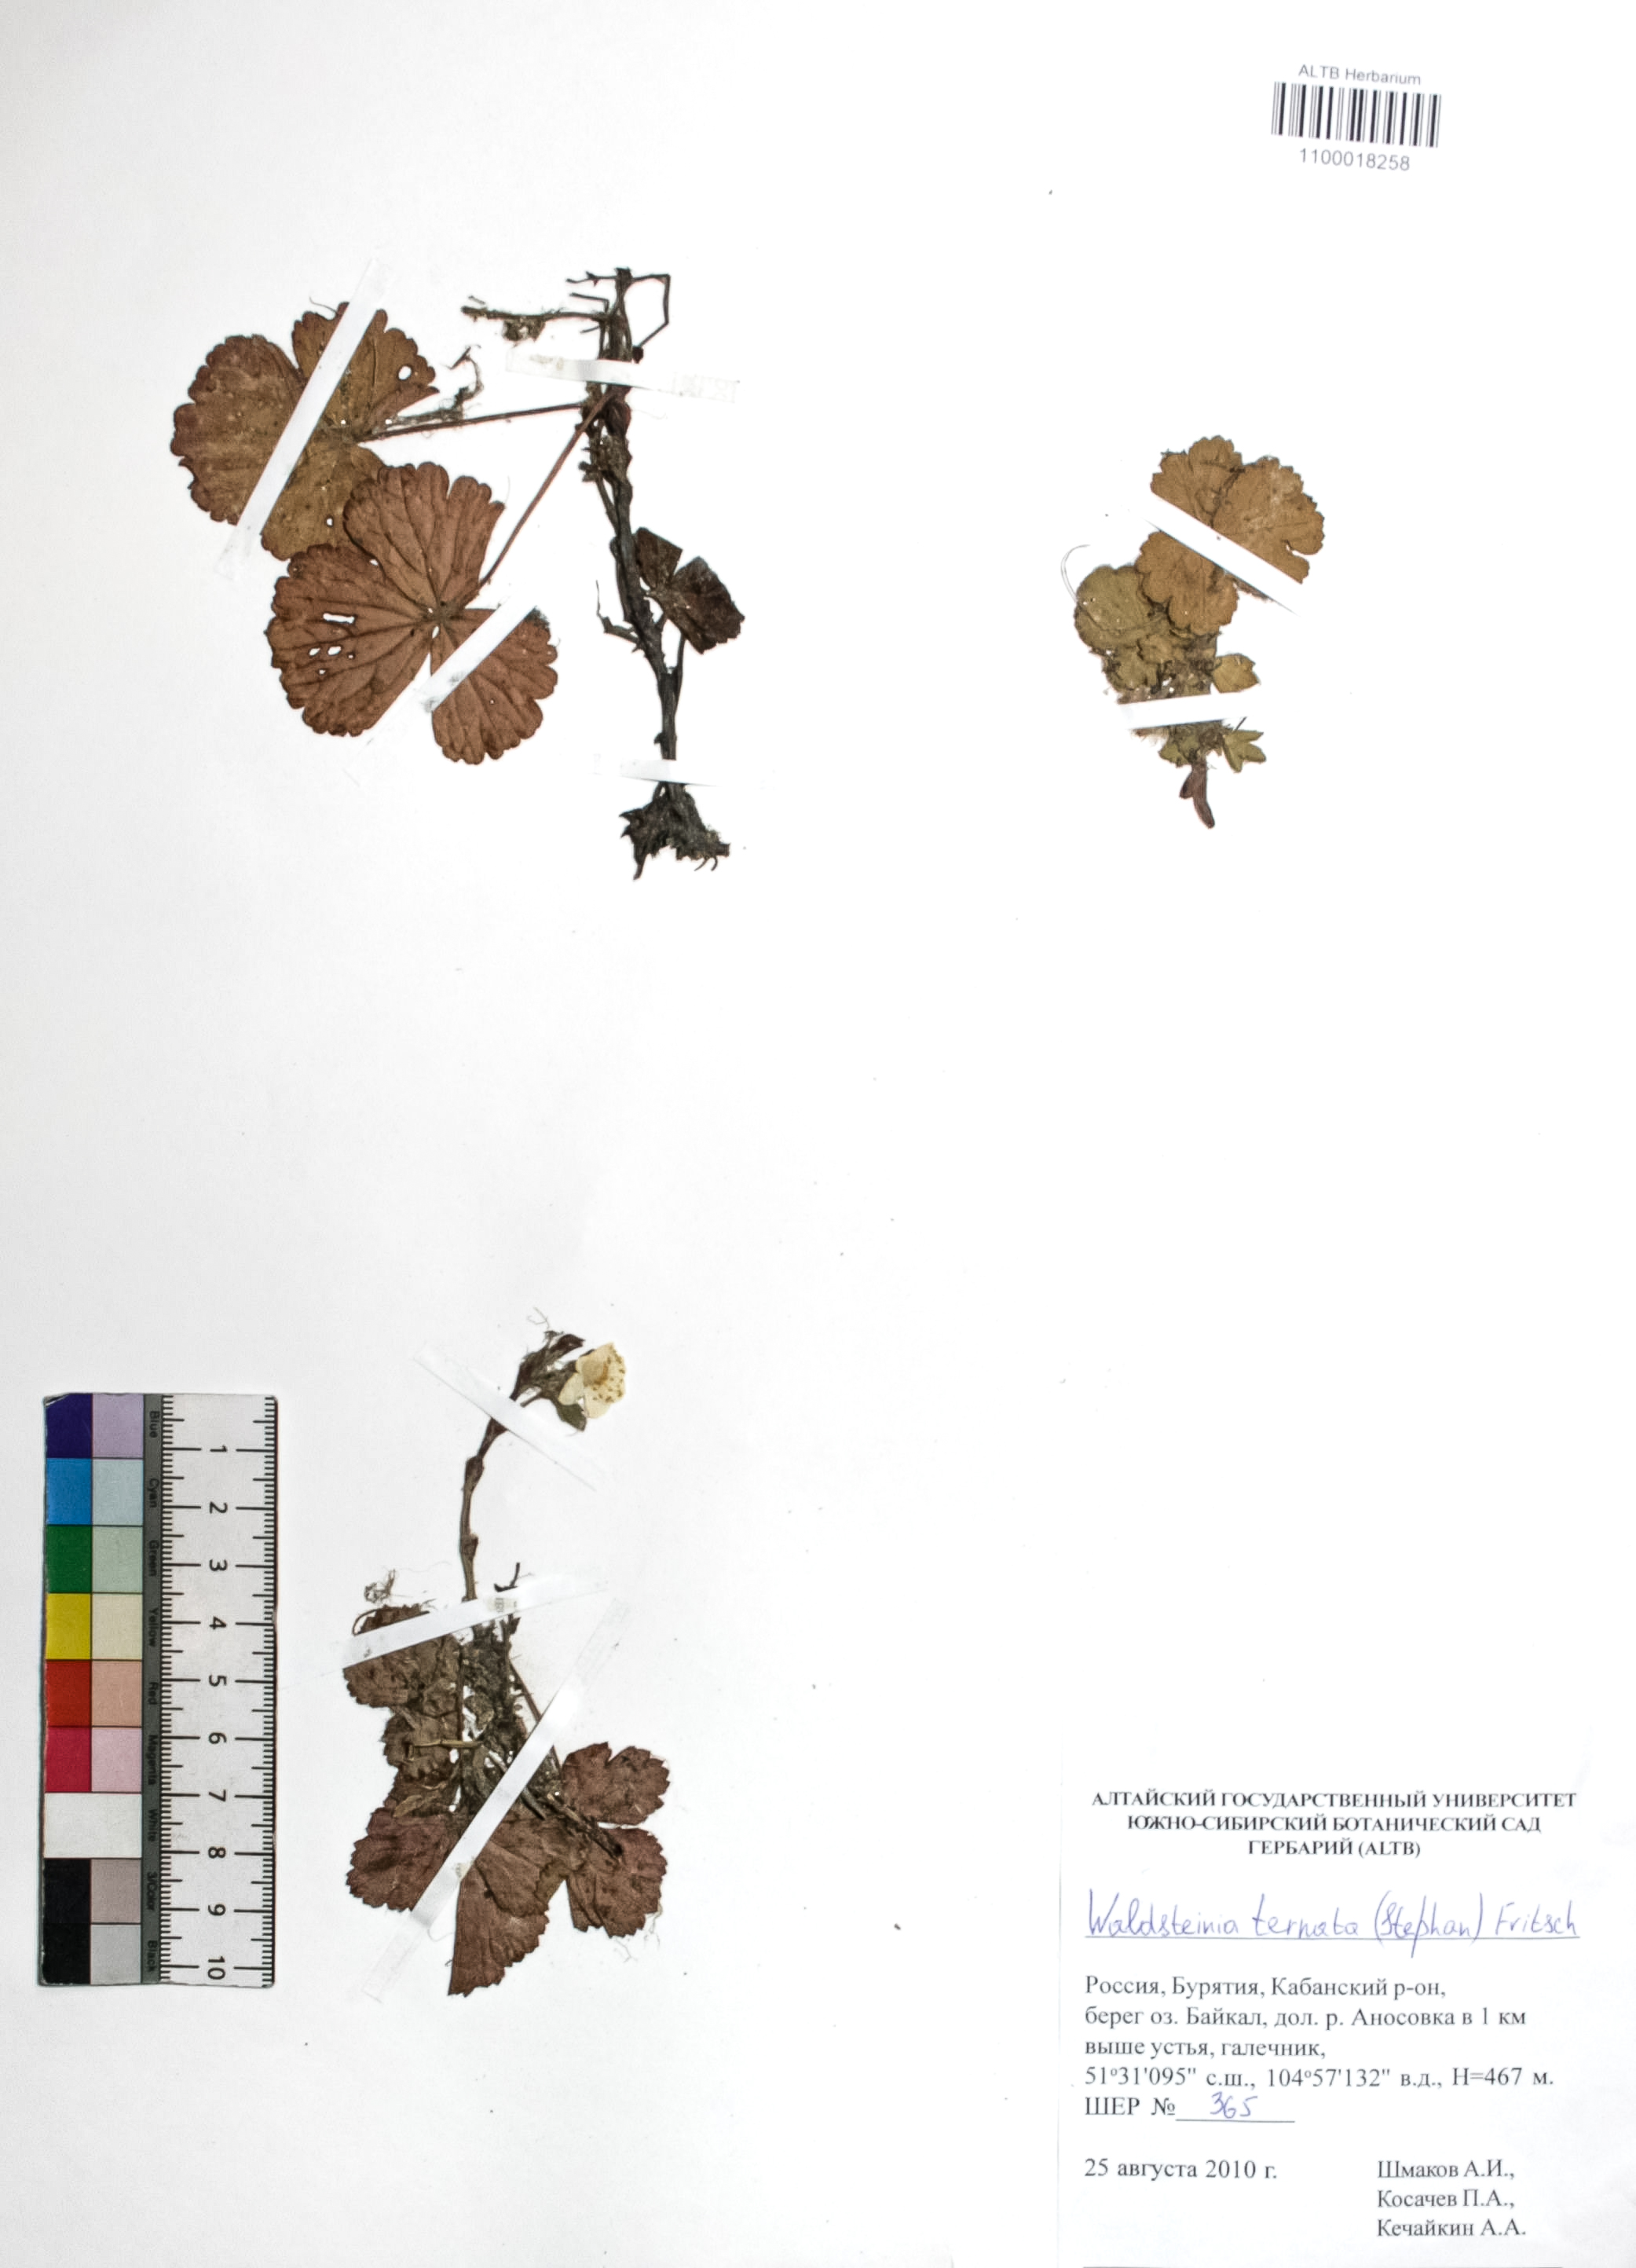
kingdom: Plantae
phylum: Tracheophyta
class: Magnoliopsida
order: Rosales
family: Rosaceae
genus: Geum
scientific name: Geum ternatum
